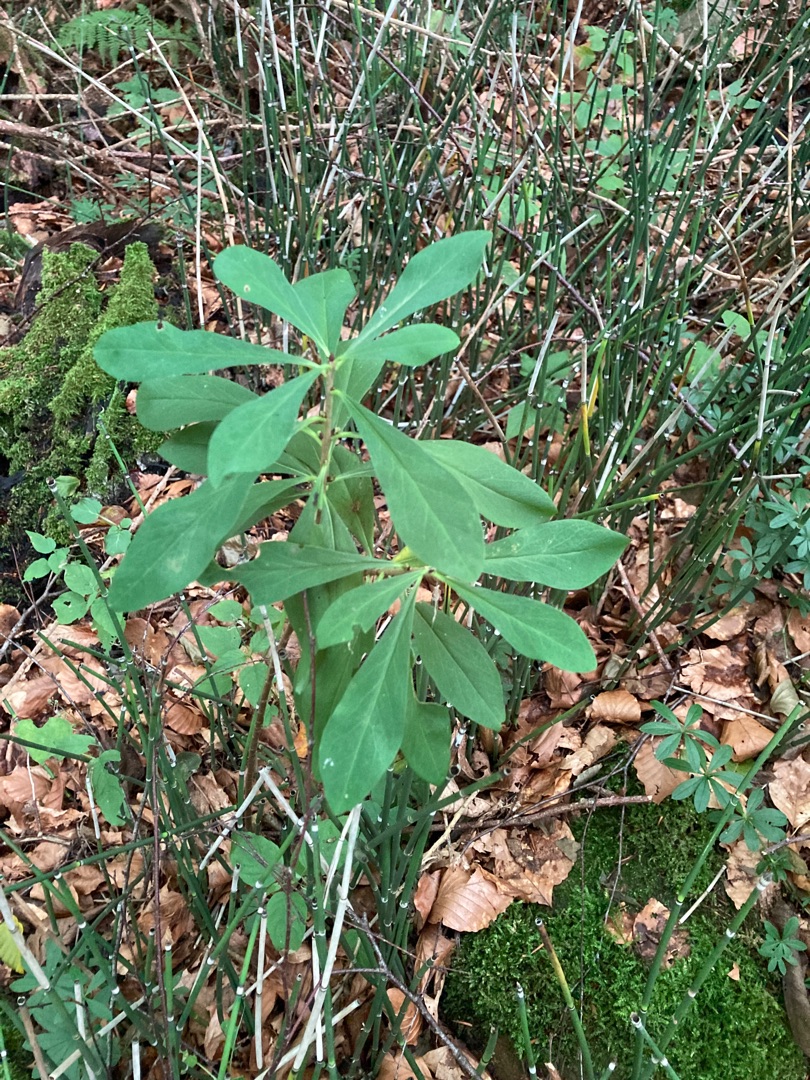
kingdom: Plantae
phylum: Tracheophyta
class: Magnoliopsida
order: Malvales
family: Thymelaeaceae
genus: Daphne
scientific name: Daphne mezereum
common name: Pebertræ
